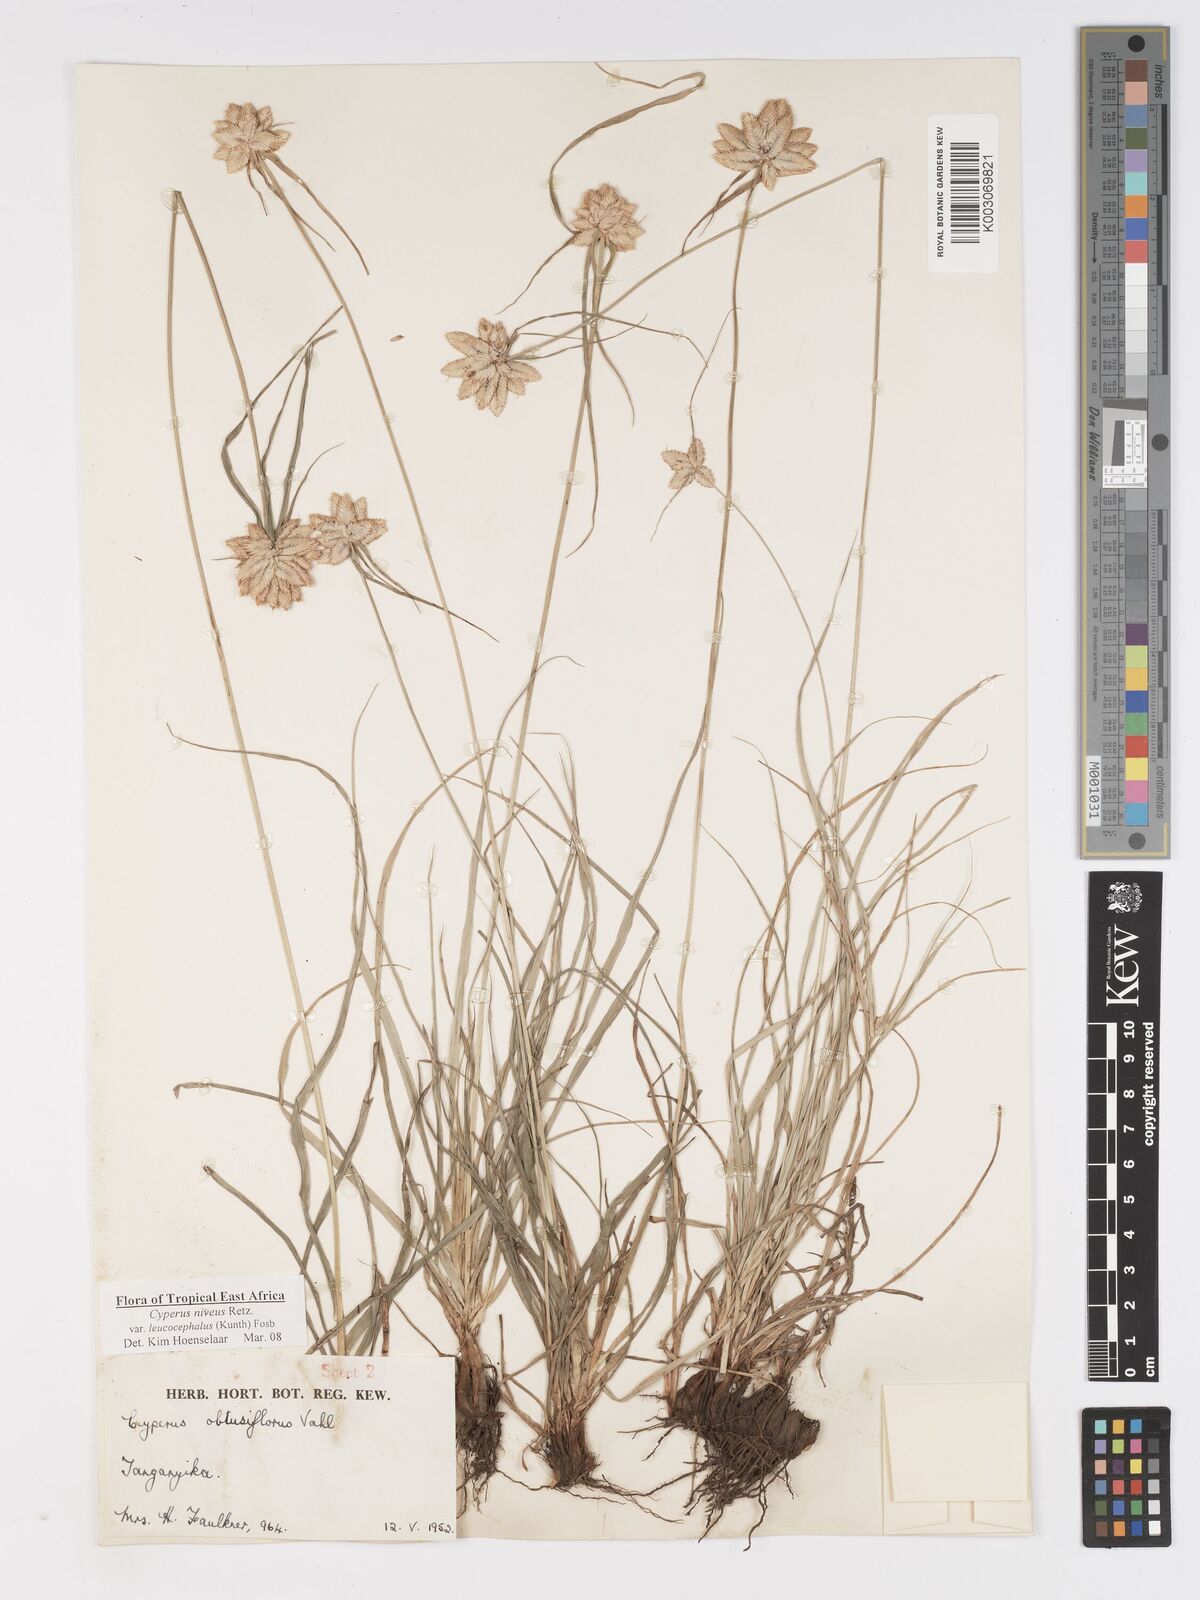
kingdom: Plantae
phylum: Tracheophyta
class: Liliopsida
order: Poales
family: Cyperaceae
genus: Cyperus
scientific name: Cyperus niveus
